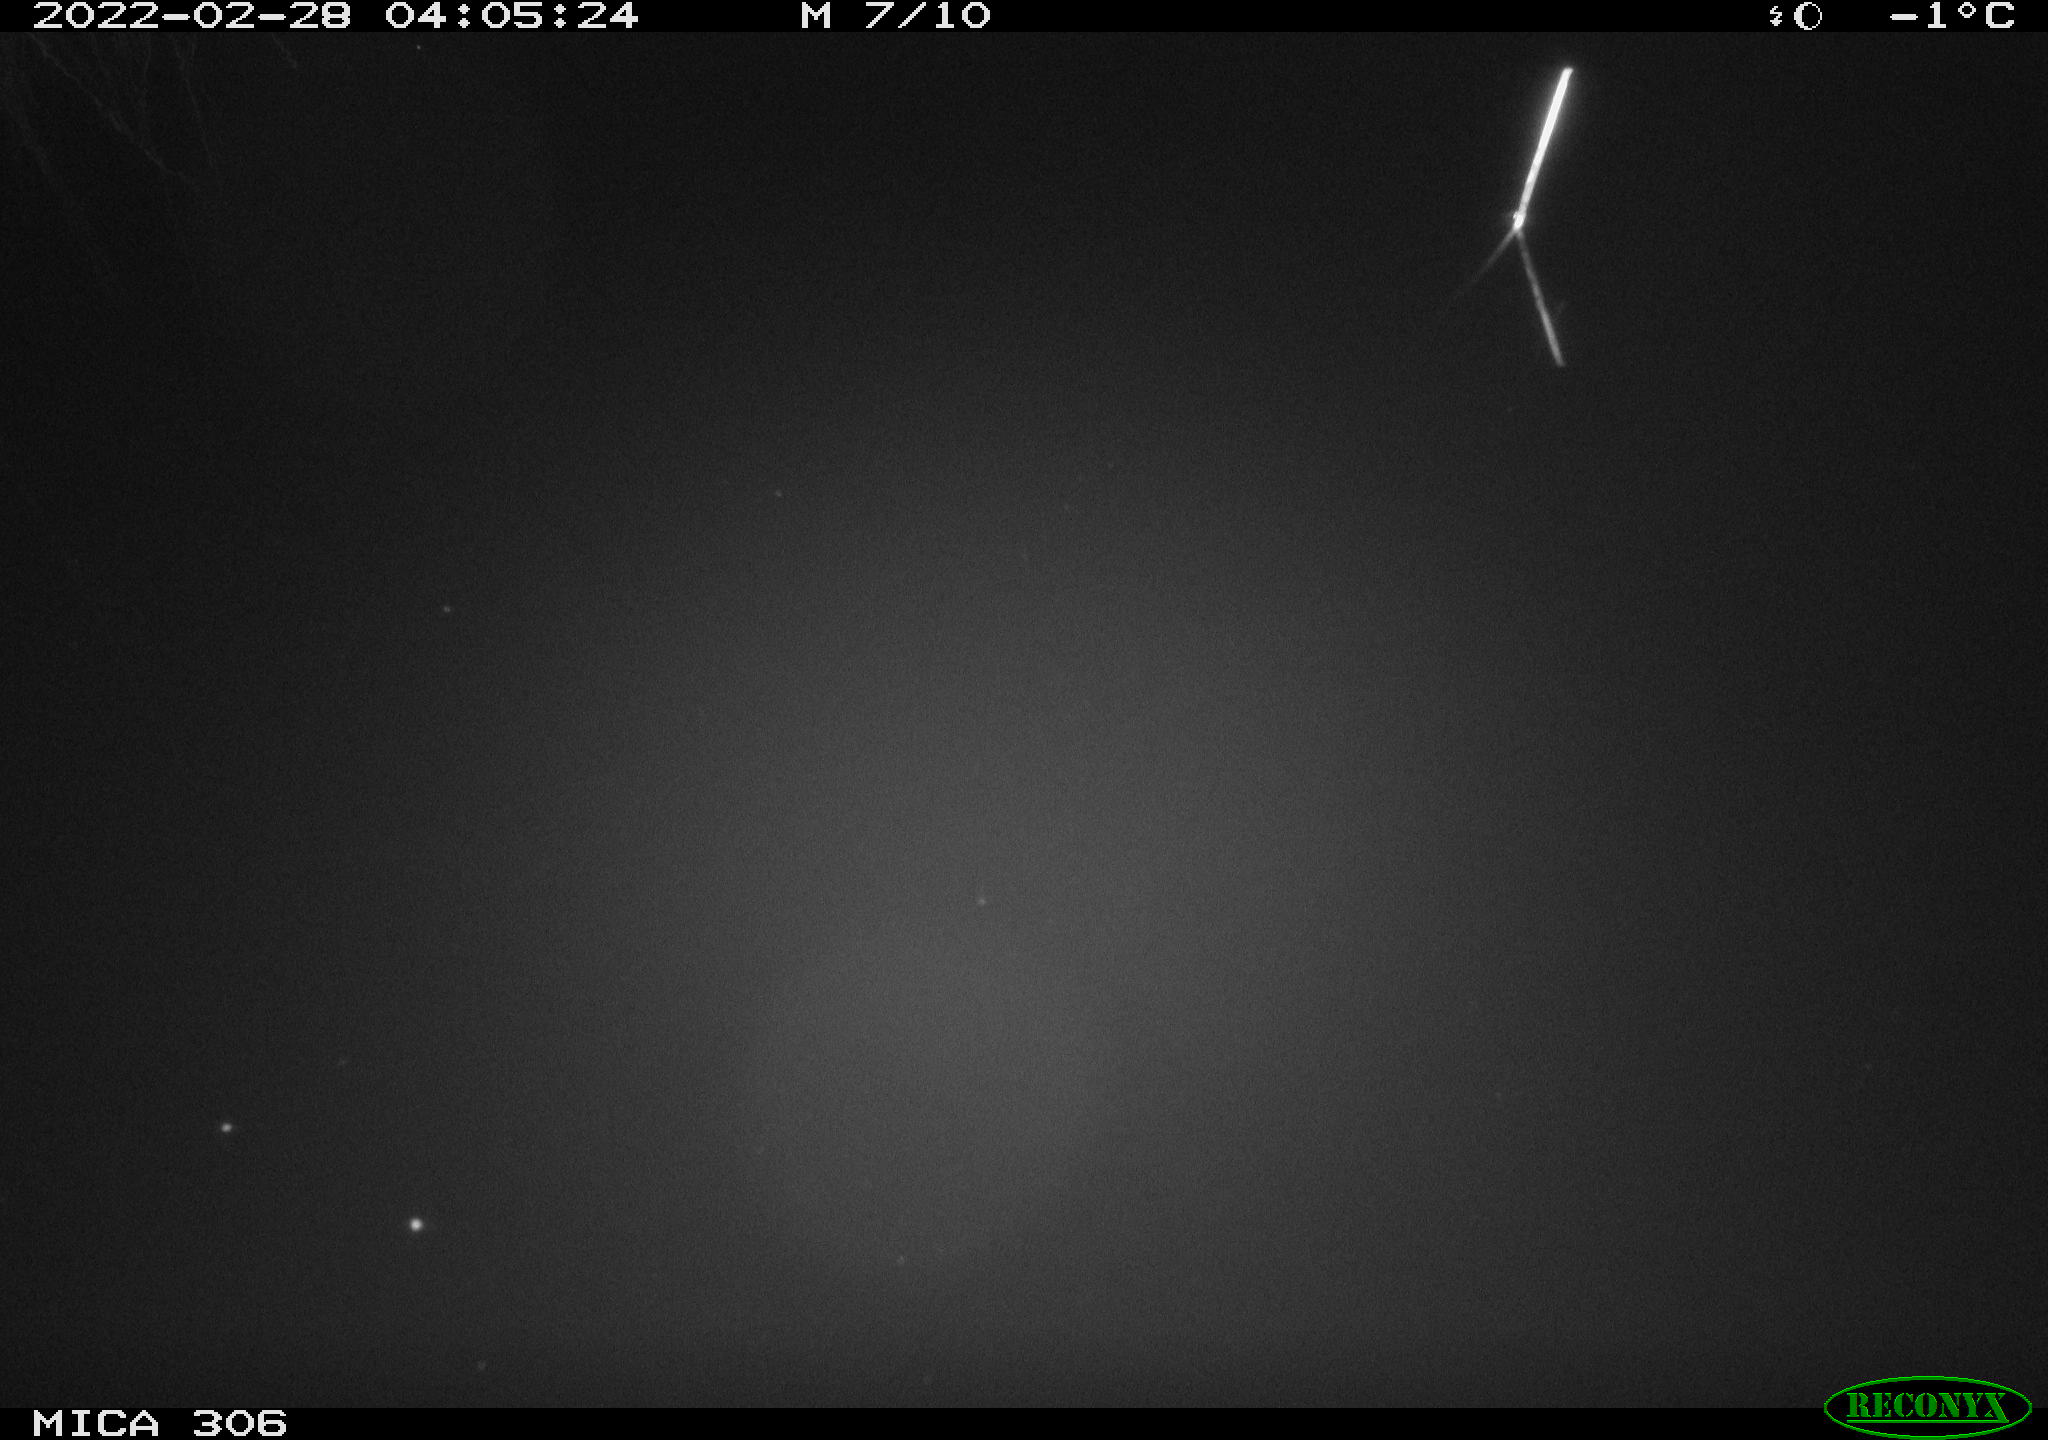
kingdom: Animalia
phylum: Chordata
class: Aves
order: Gruiformes
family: Rallidae
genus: Gallinula
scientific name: Gallinula chloropus
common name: Common moorhen
